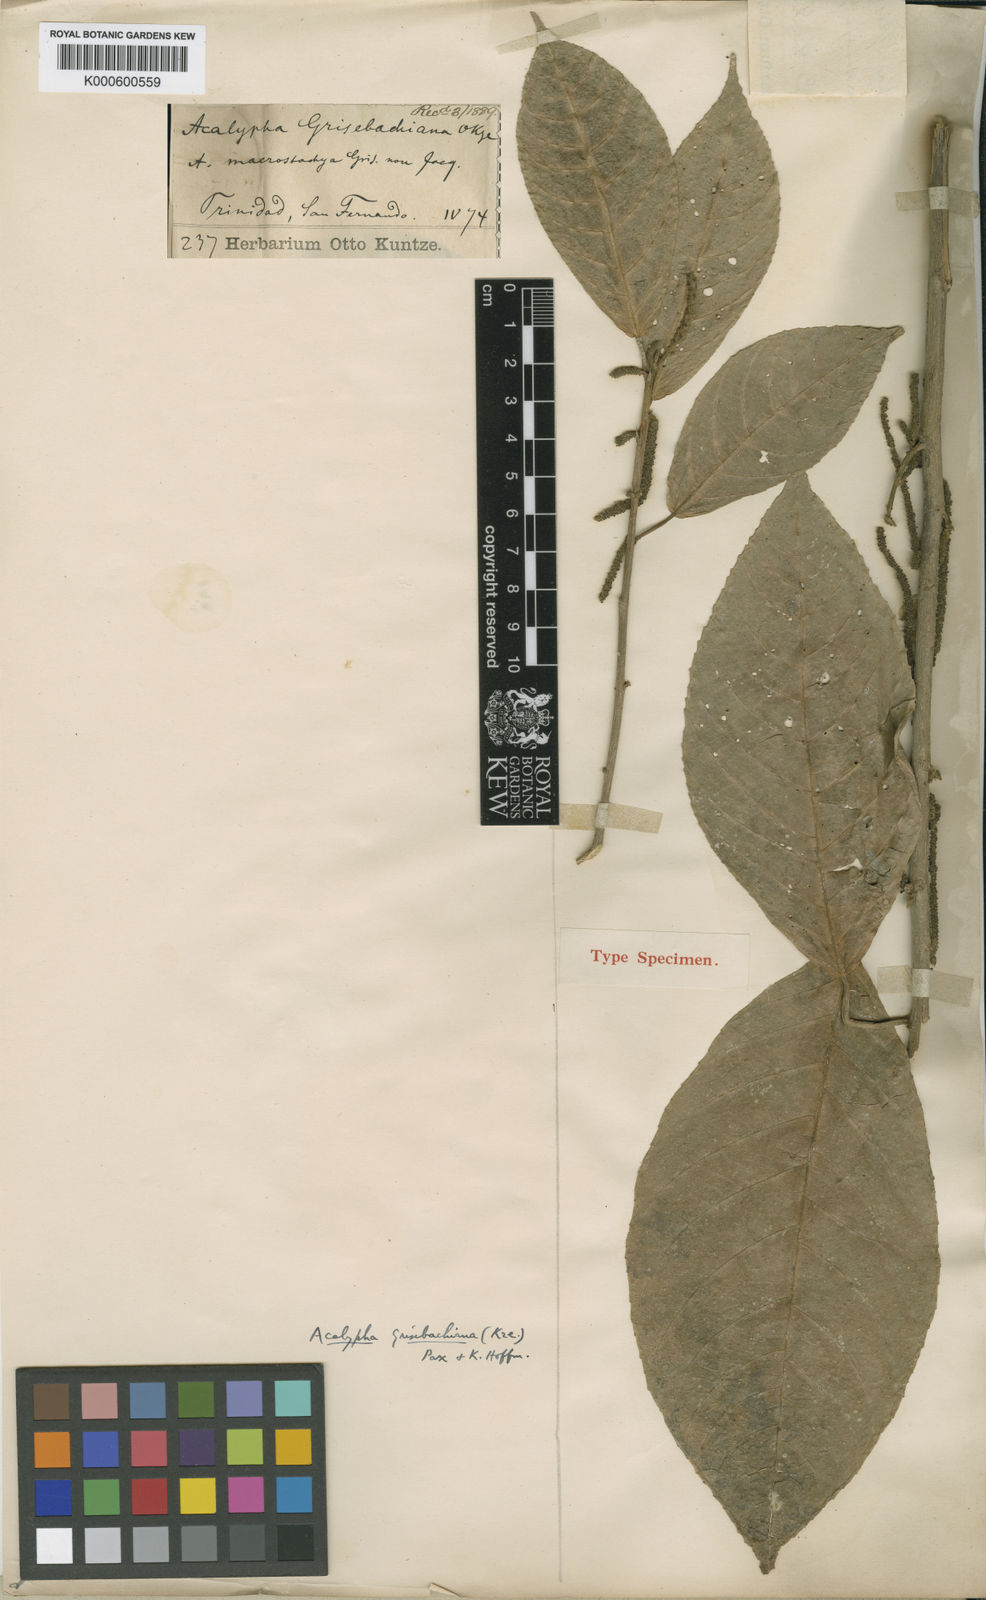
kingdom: Plantae
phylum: Tracheophyta
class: Magnoliopsida
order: Malpighiales
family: Euphorbiaceae
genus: Acalypha
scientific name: Acalypha grisebachiana
